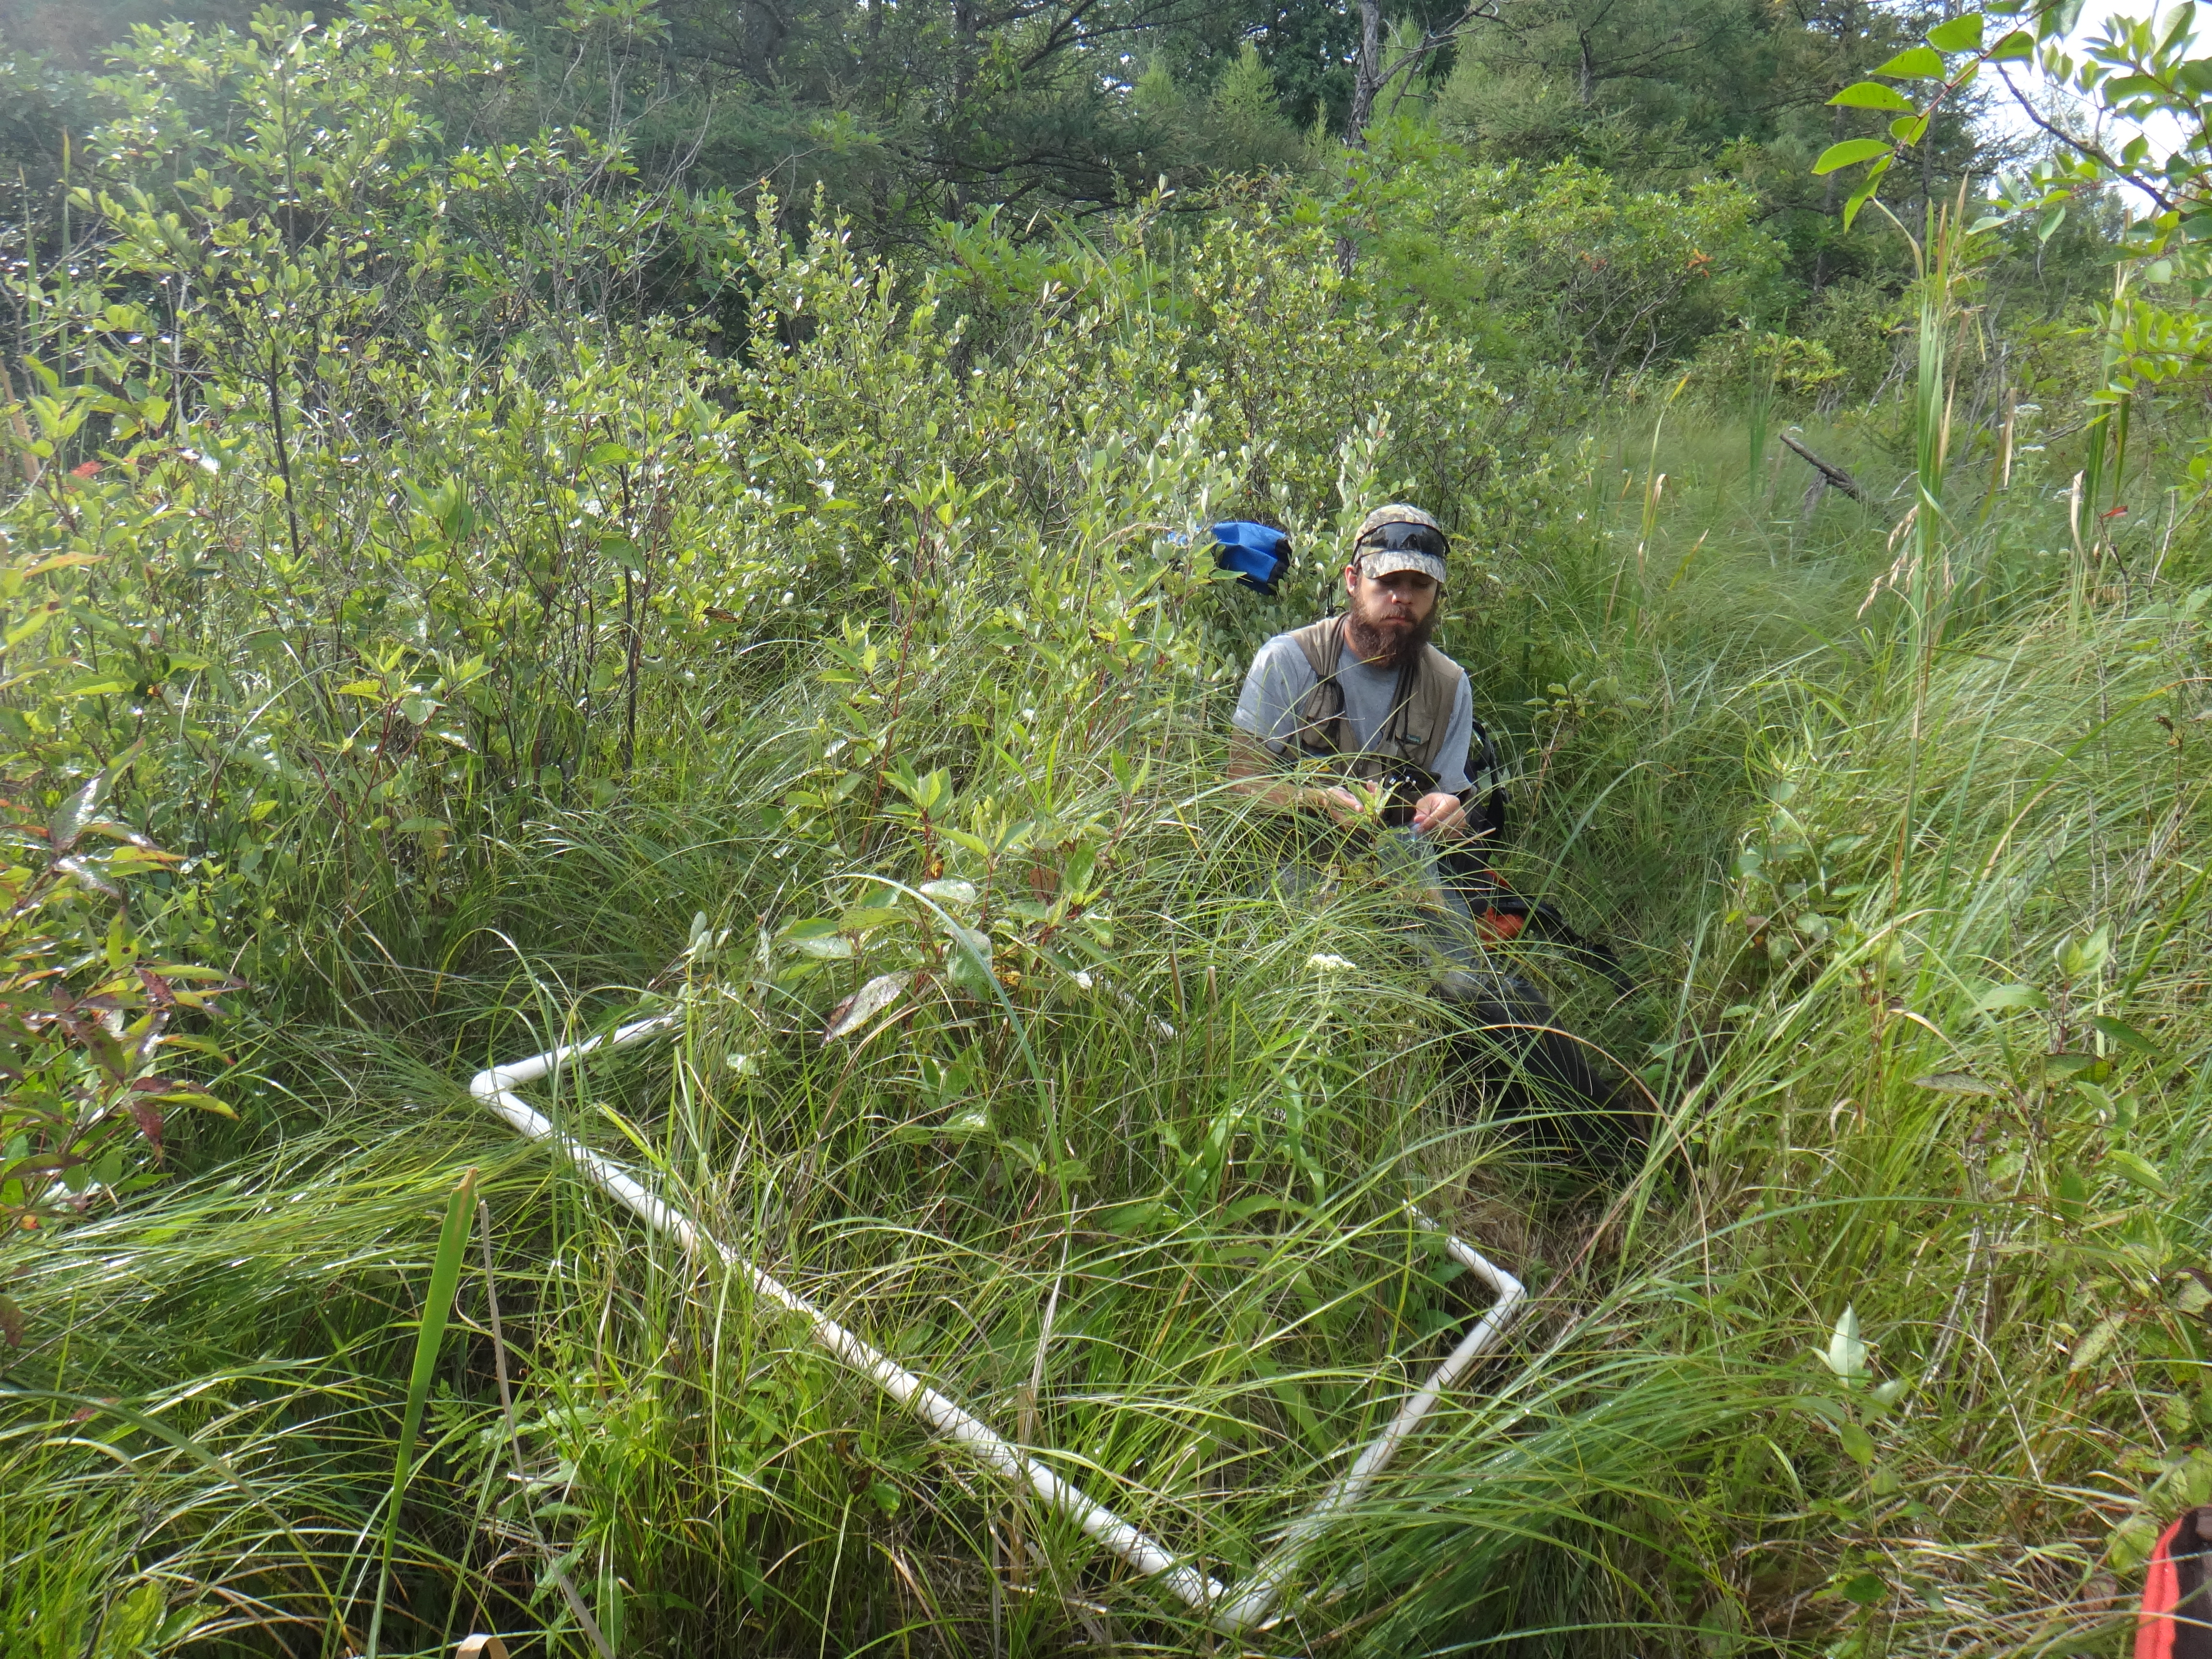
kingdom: Plantae
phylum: Tracheophyta
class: Magnoliopsida
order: Asterales
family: Asteraceae
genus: Eupatorium
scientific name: Eupatorium perfoliatum
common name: Boneset
